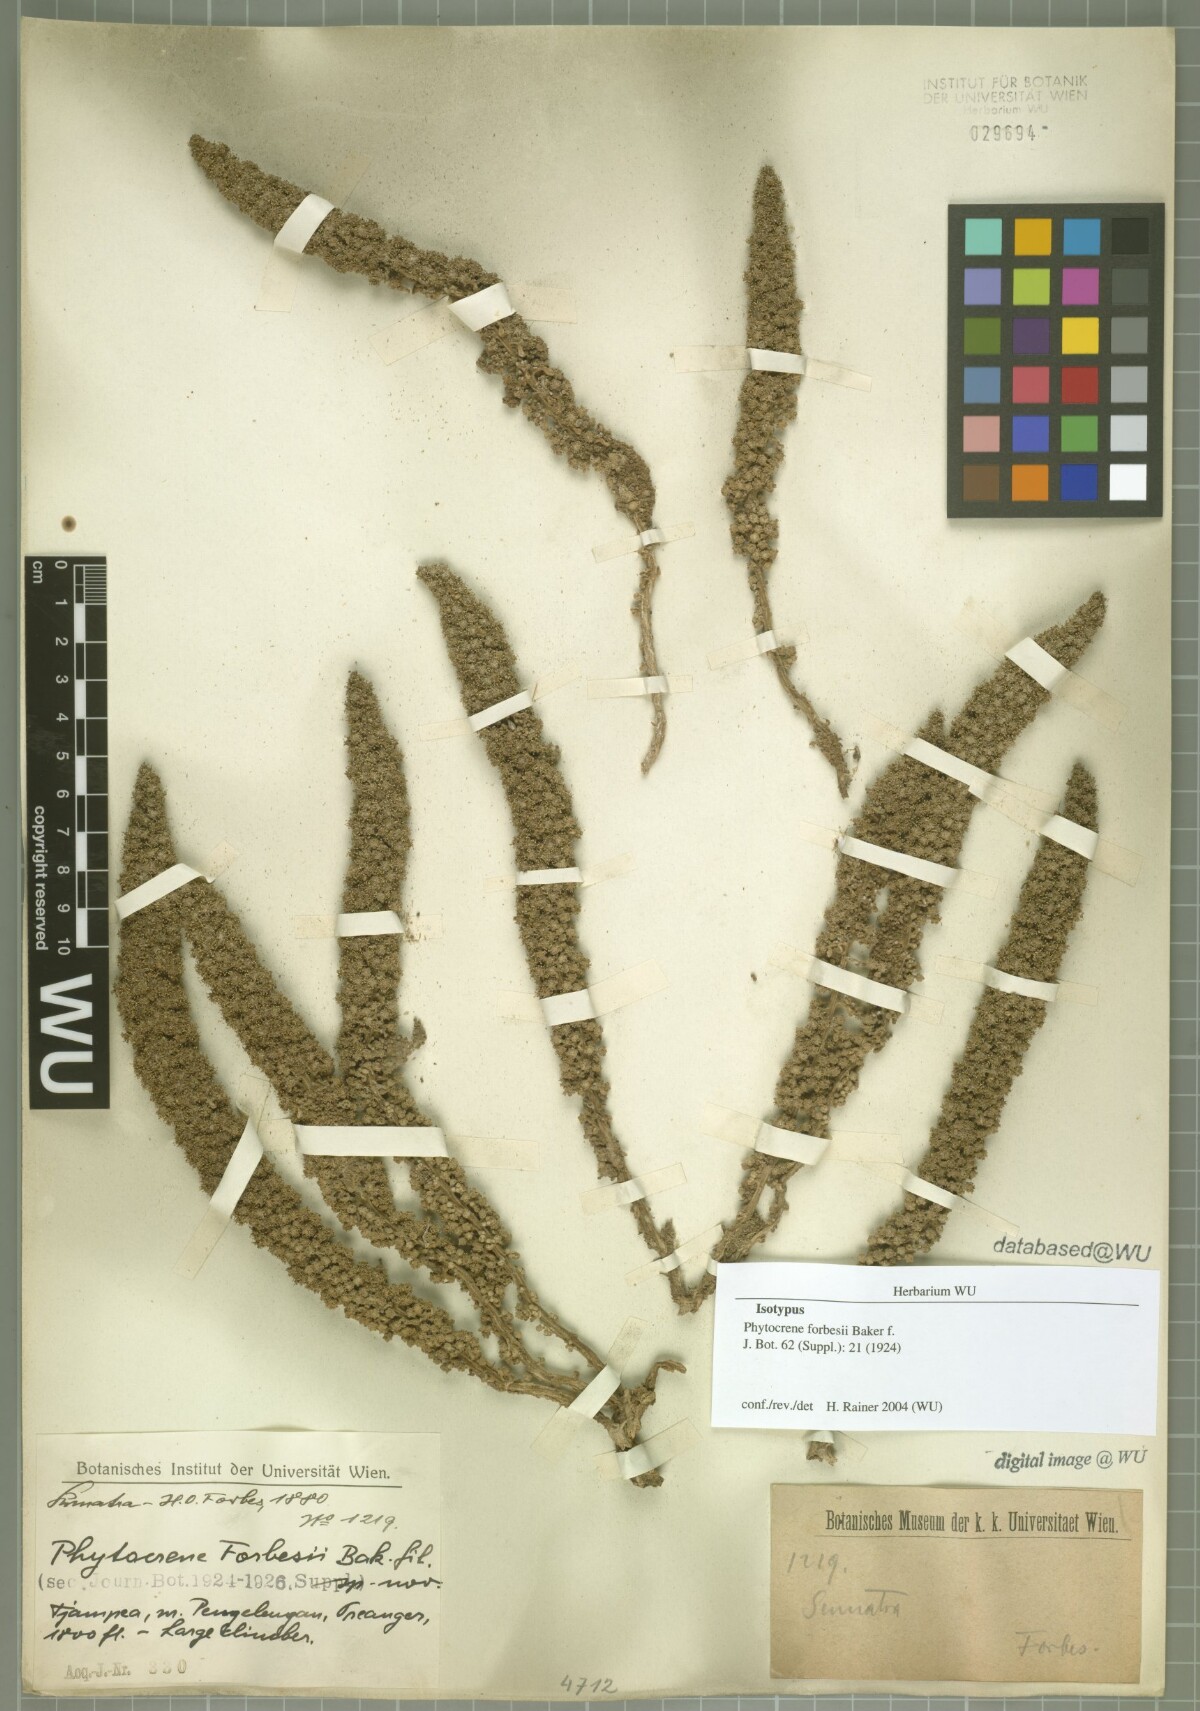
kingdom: Plantae
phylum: Tracheophyta
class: Magnoliopsida
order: Icacinales
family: Icacinaceae
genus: Phytocrene
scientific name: Phytocrene macrophylla
